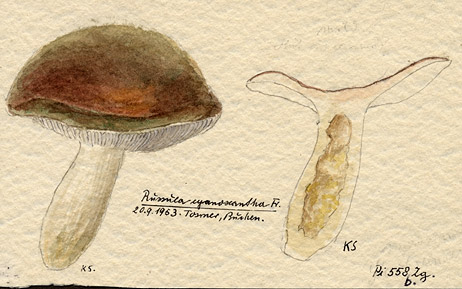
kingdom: Fungi
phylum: Basidiomycota
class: Agaricomycetes
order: Russulales
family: Russulaceae
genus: Russula
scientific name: Russula cyanoxantha
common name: Charcoal burner
